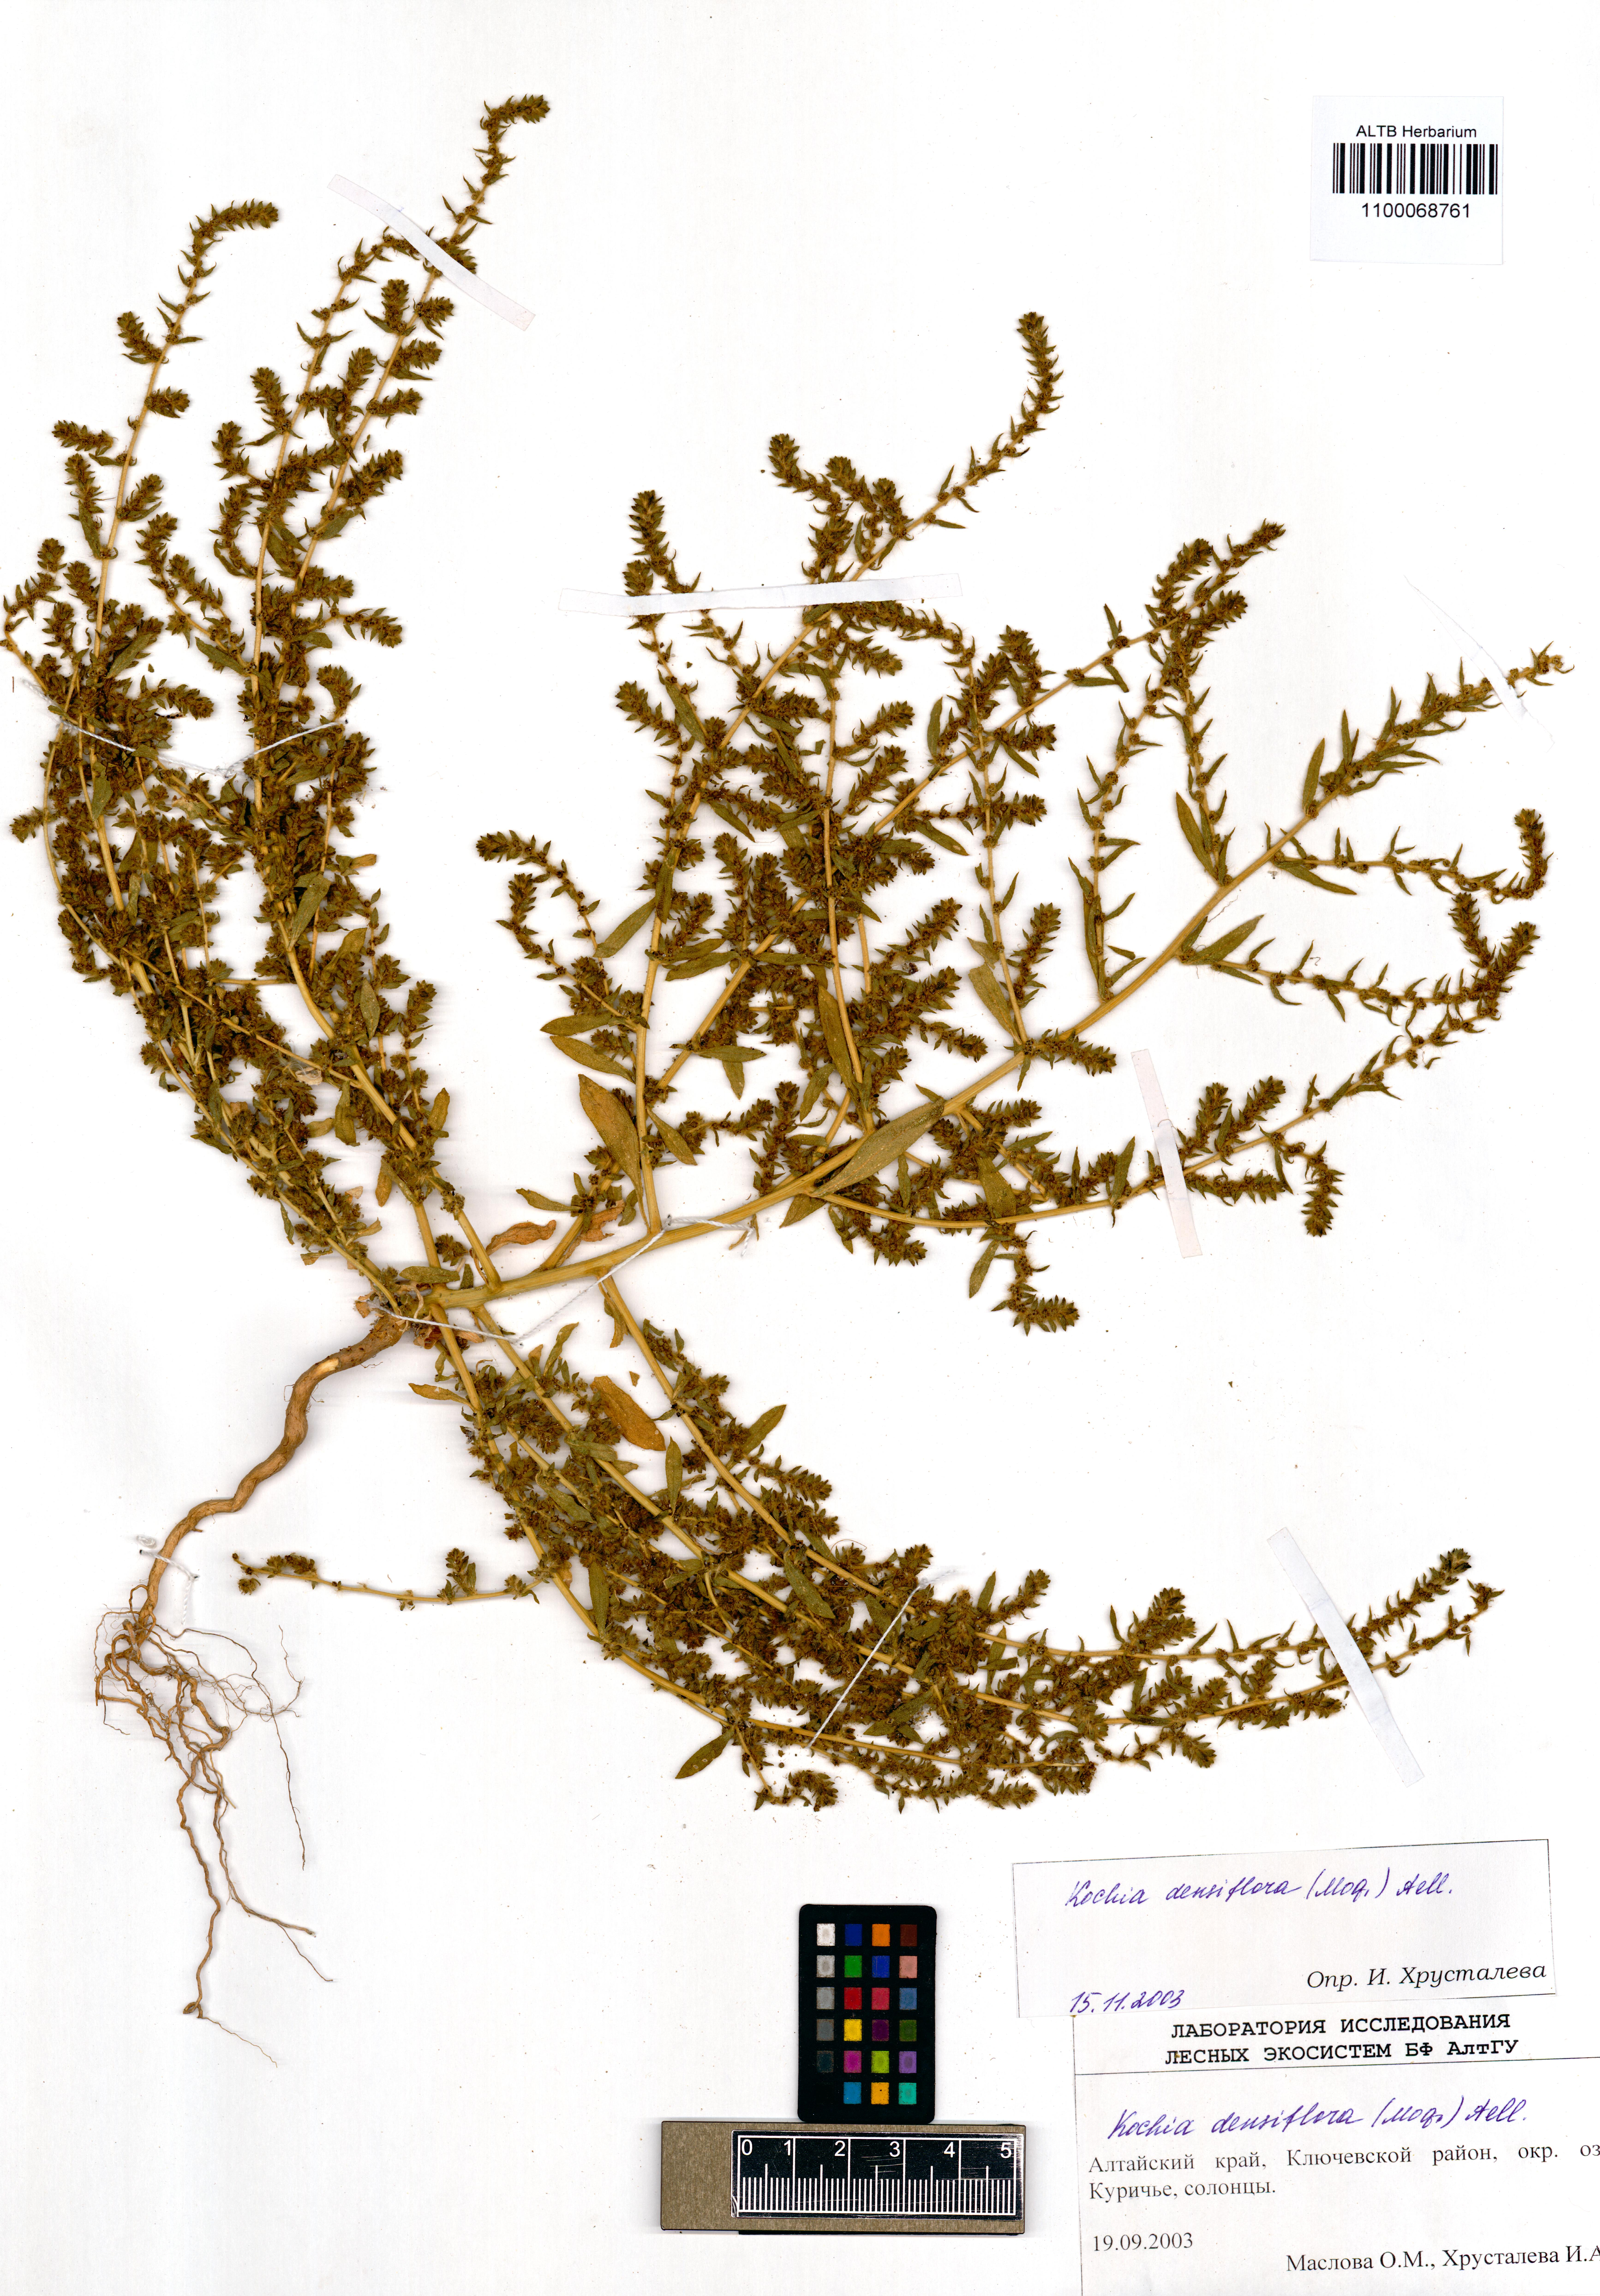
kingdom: Plantae
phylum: Tracheophyta
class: Magnoliopsida
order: Caryophyllales
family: Amaranthaceae
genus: Bassia
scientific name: Bassia scoparia
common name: Belvedere
